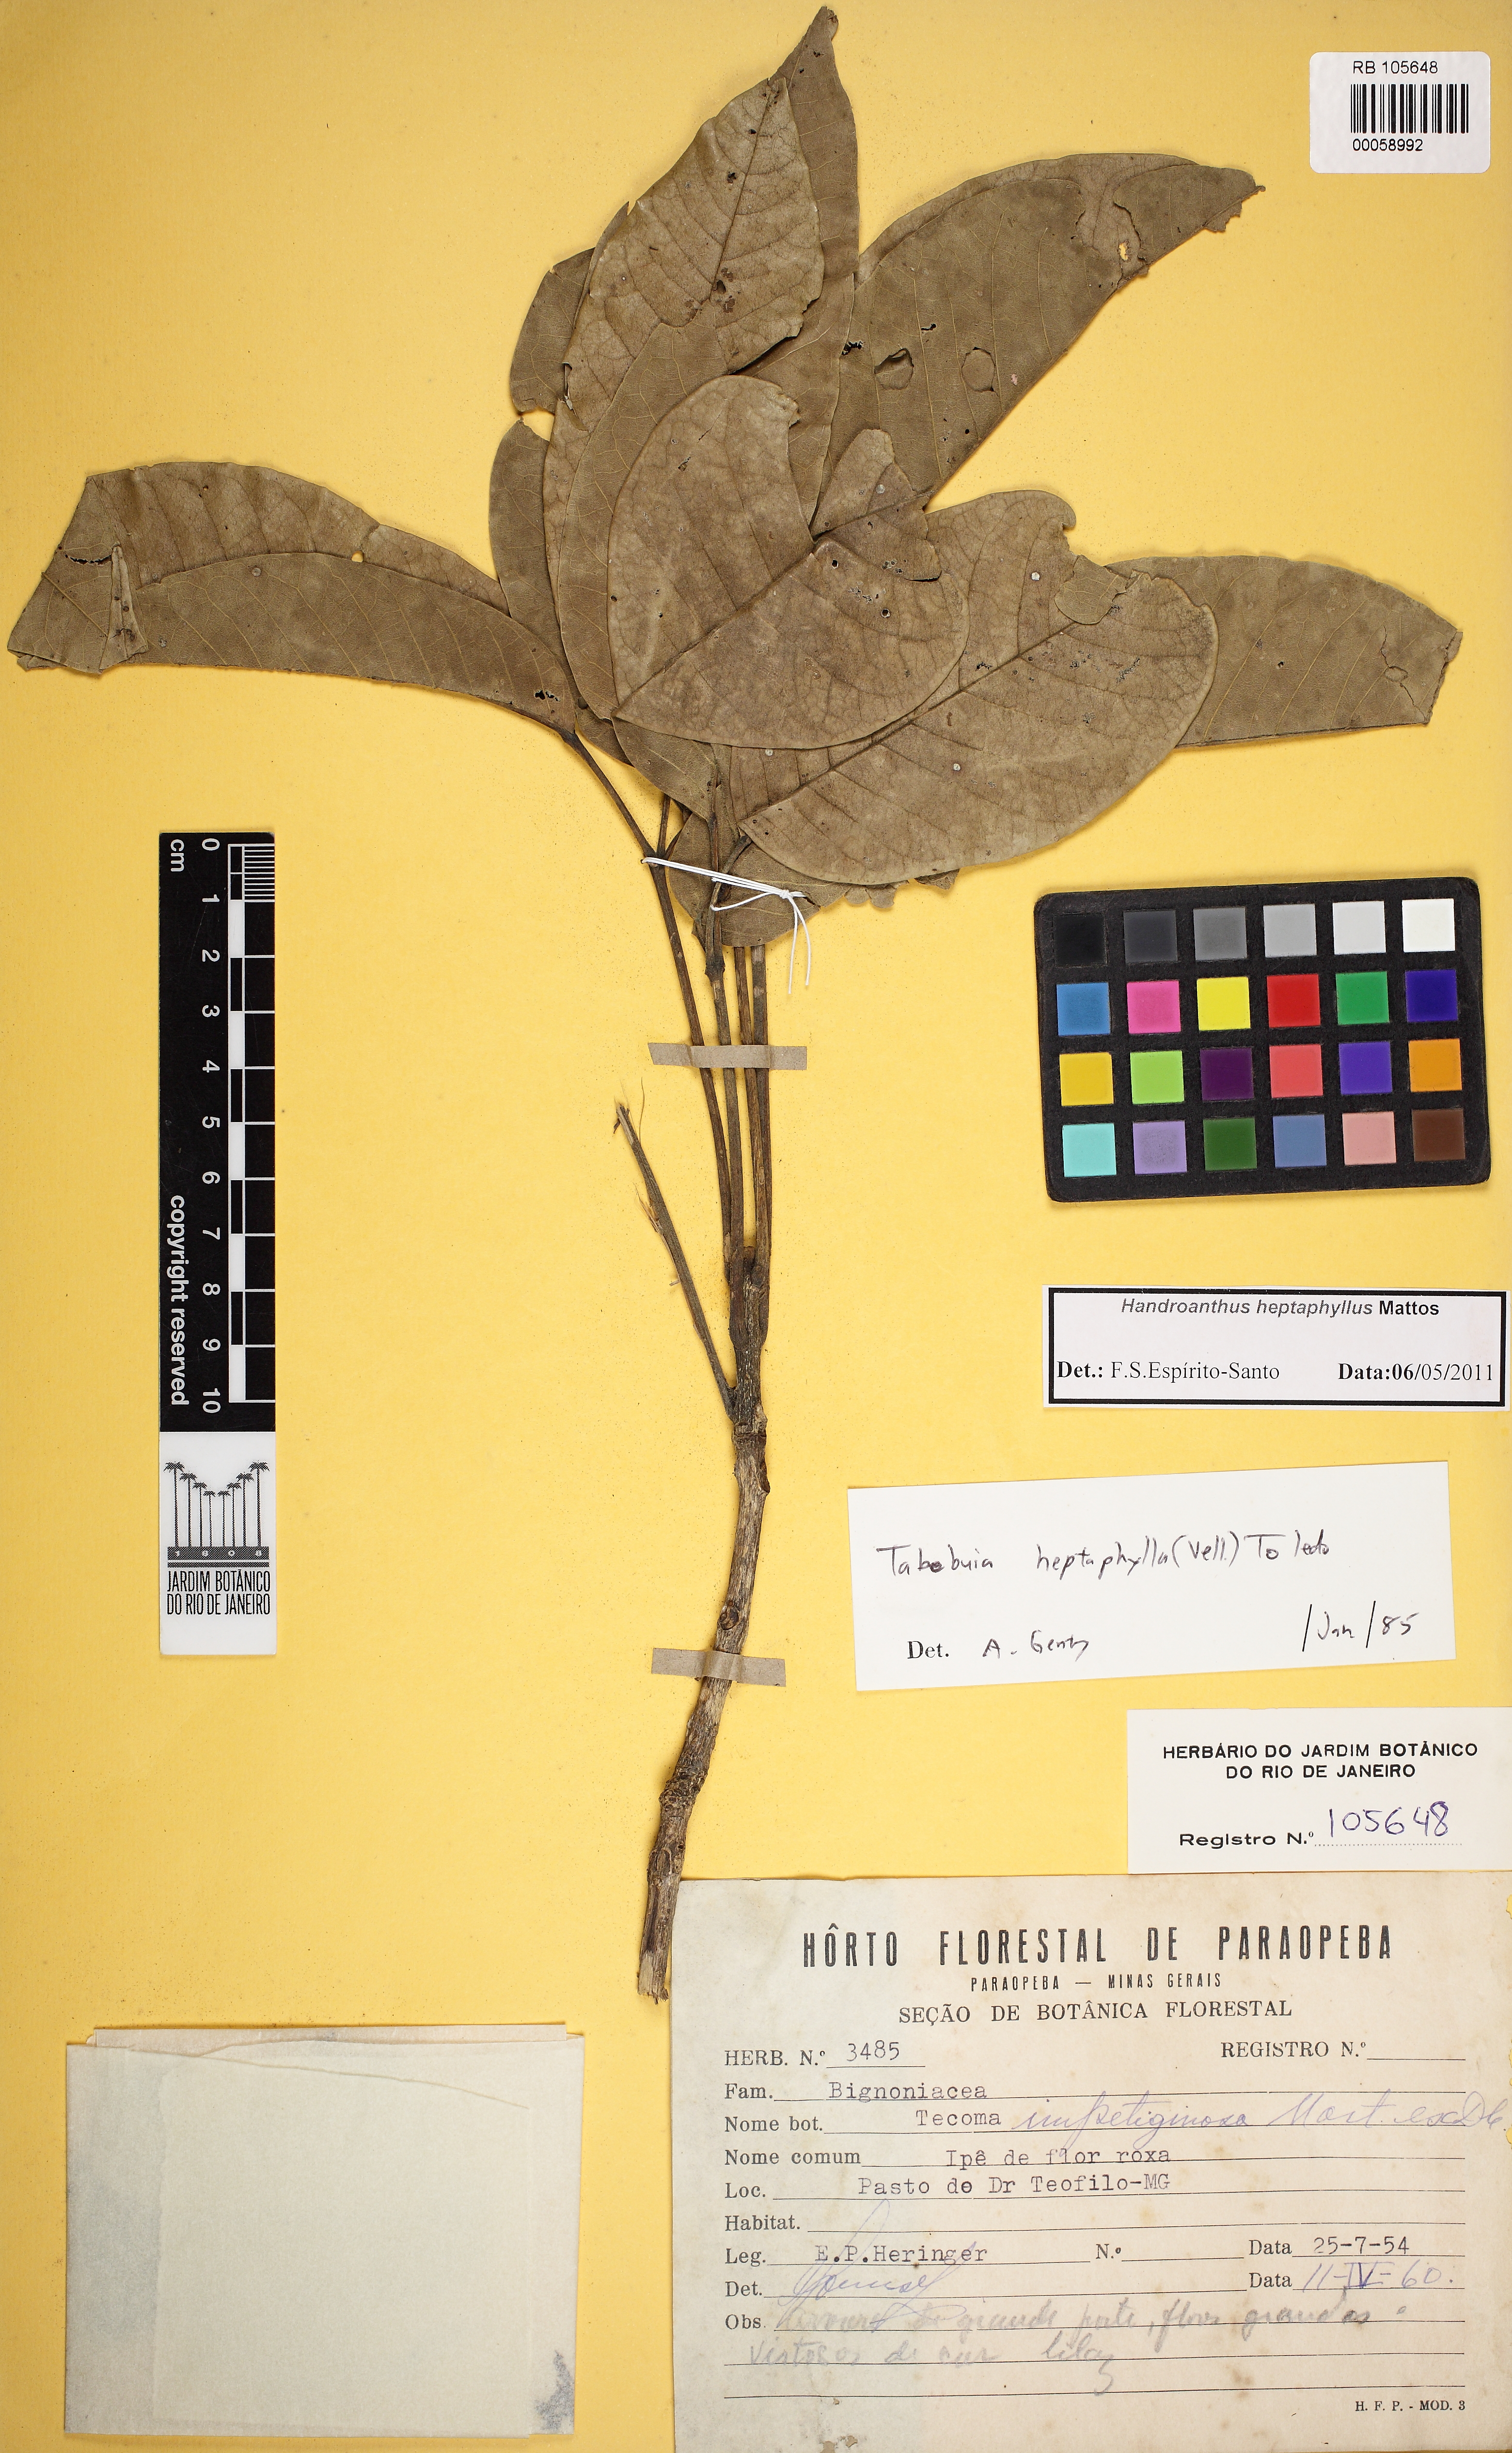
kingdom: Plantae
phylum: Tracheophyta
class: Magnoliopsida
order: Lamiales
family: Bignoniaceae
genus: Handroanthus
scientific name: Handroanthus heptaphyllus
